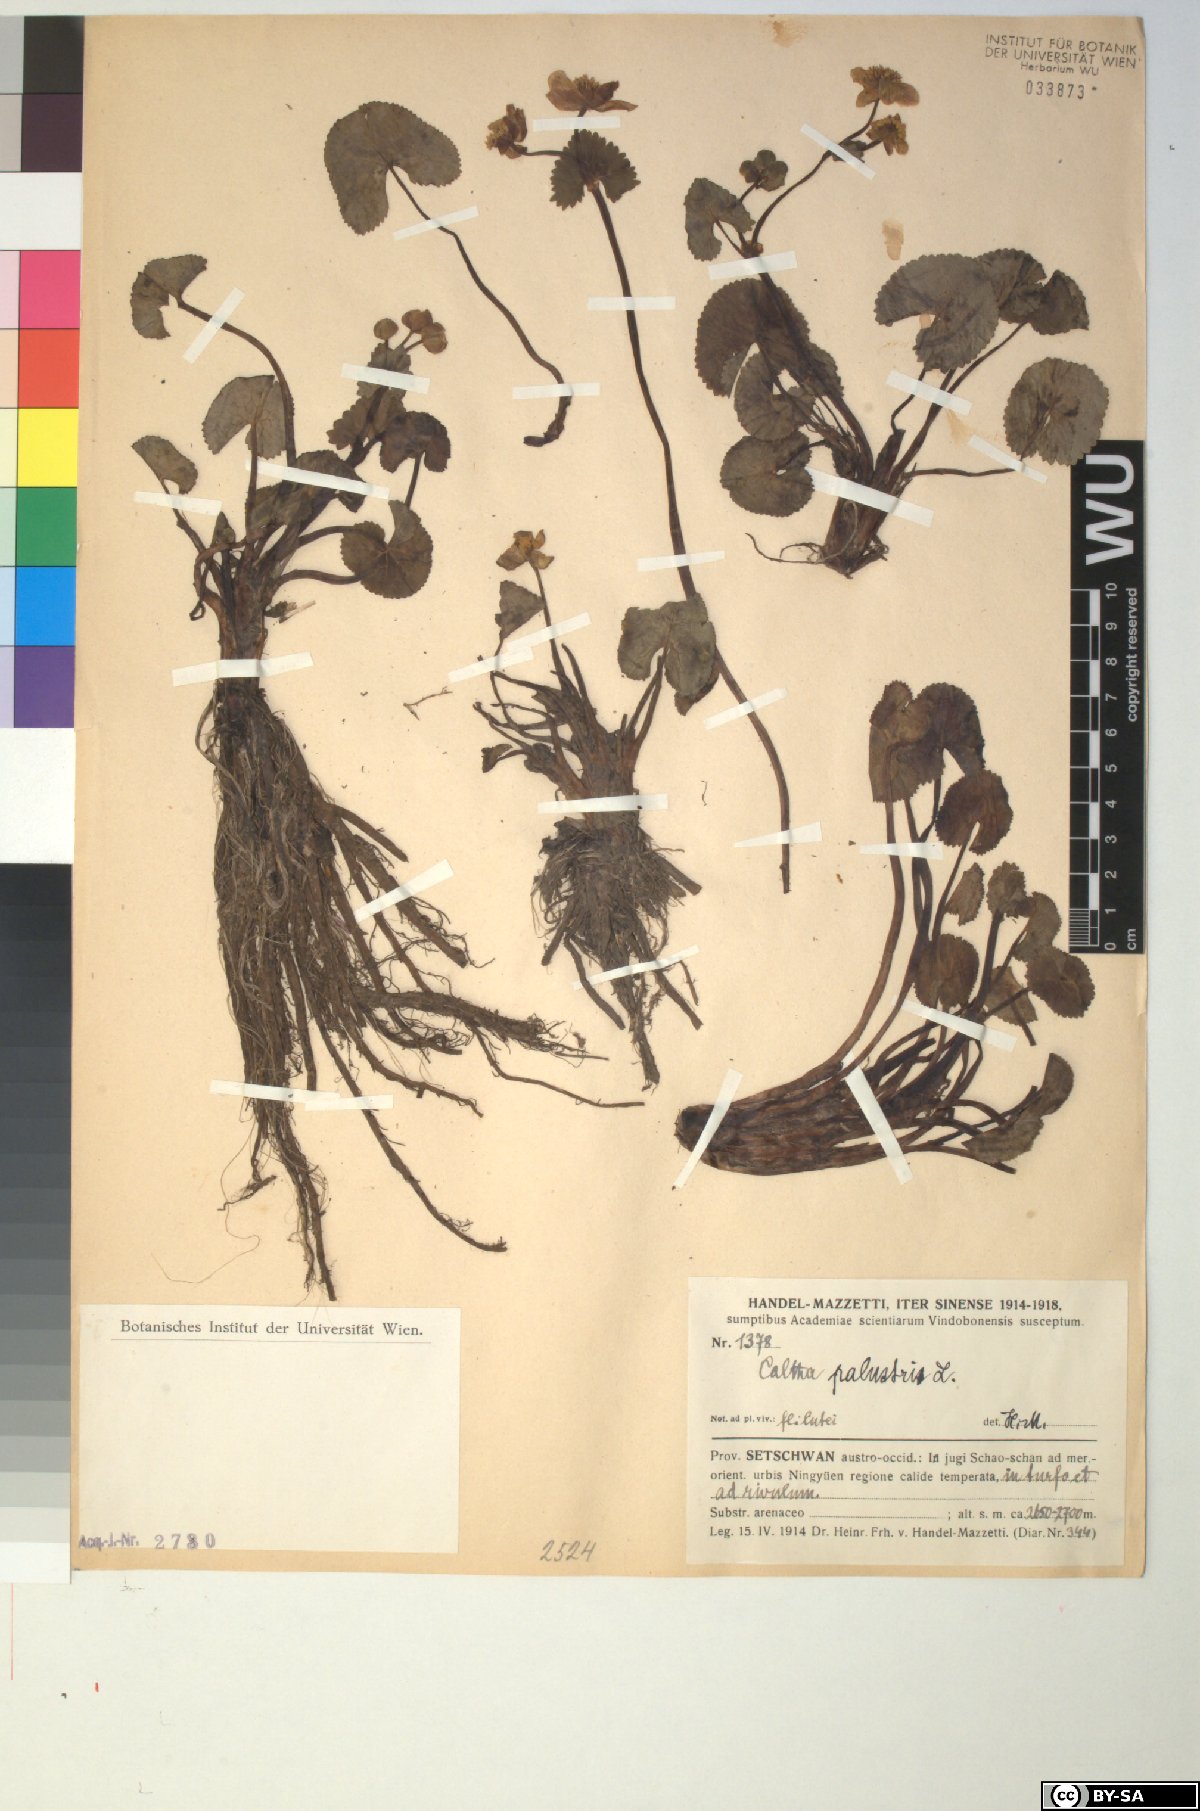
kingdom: Plantae
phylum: Tracheophyta
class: Magnoliopsida
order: Ranunculales
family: Ranunculaceae
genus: Caltha
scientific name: Caltha palustris
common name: Marsh marigold
